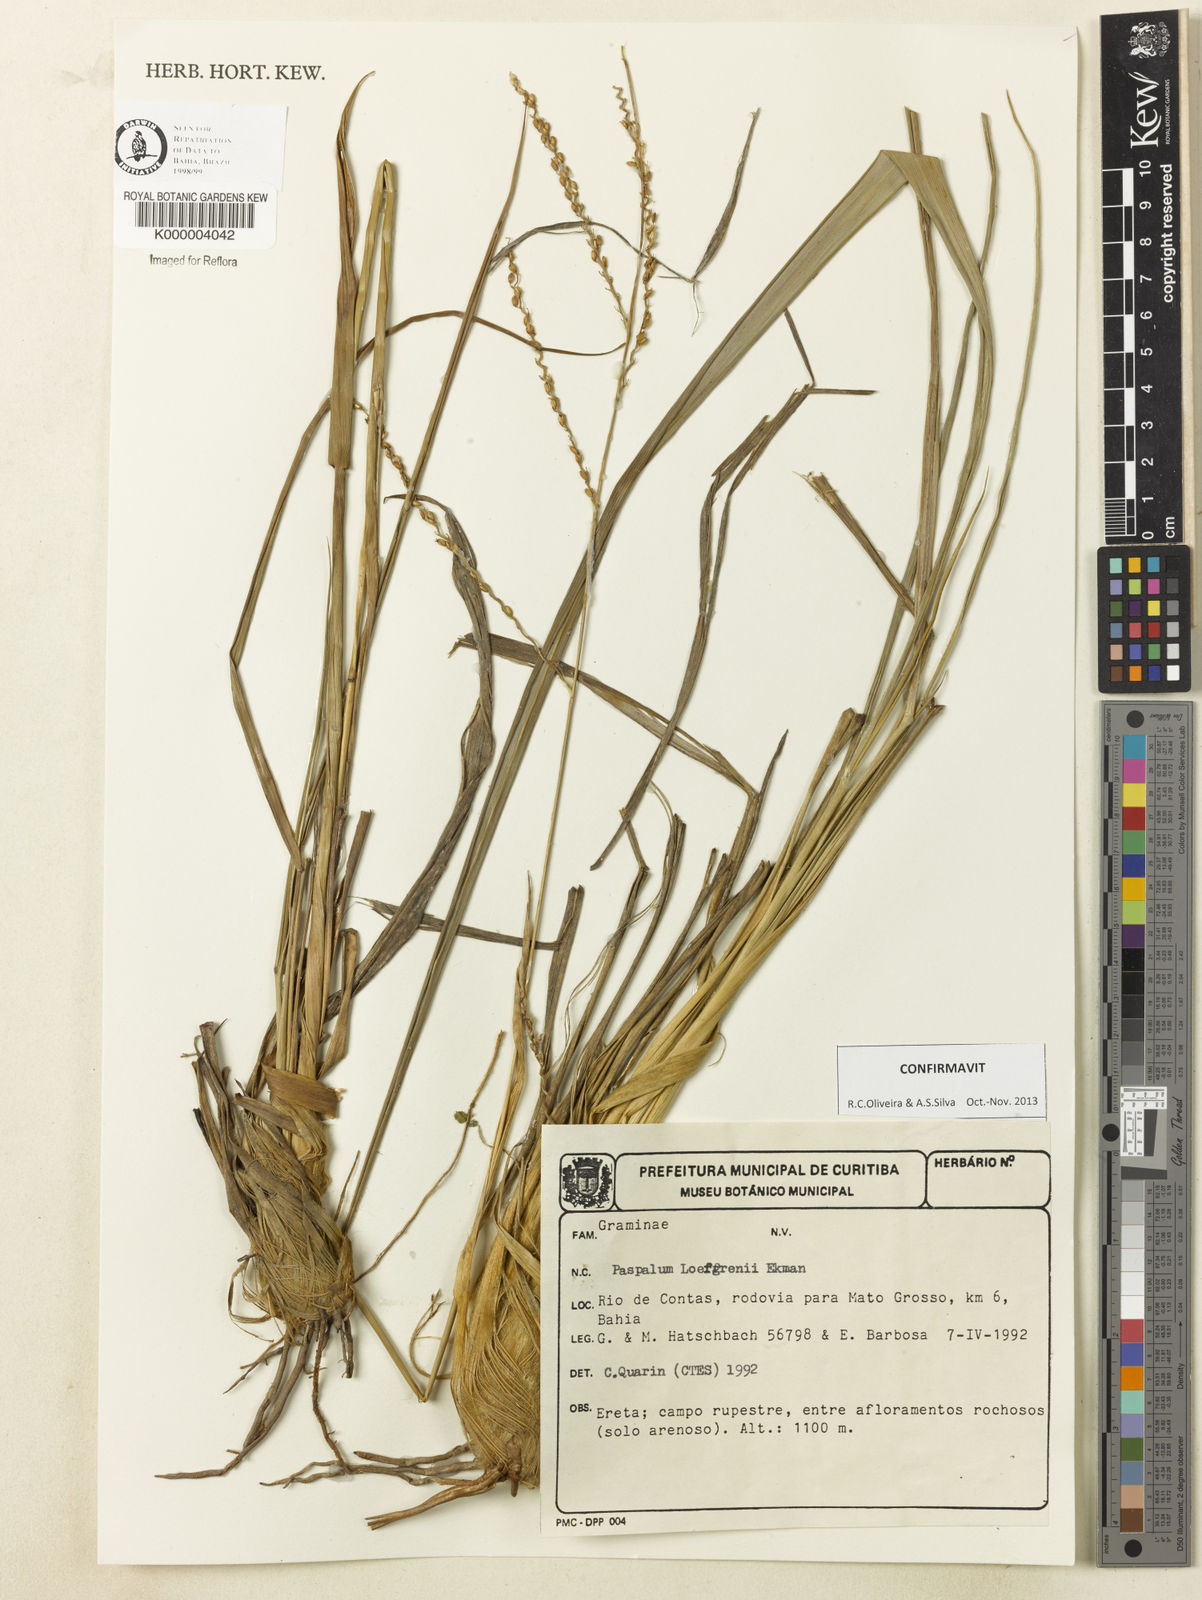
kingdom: Plantae
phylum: Tracheophyta
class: Liliopsida
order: Poales
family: Poaceae
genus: Paspalum
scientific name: Paspalum loefgrenii
